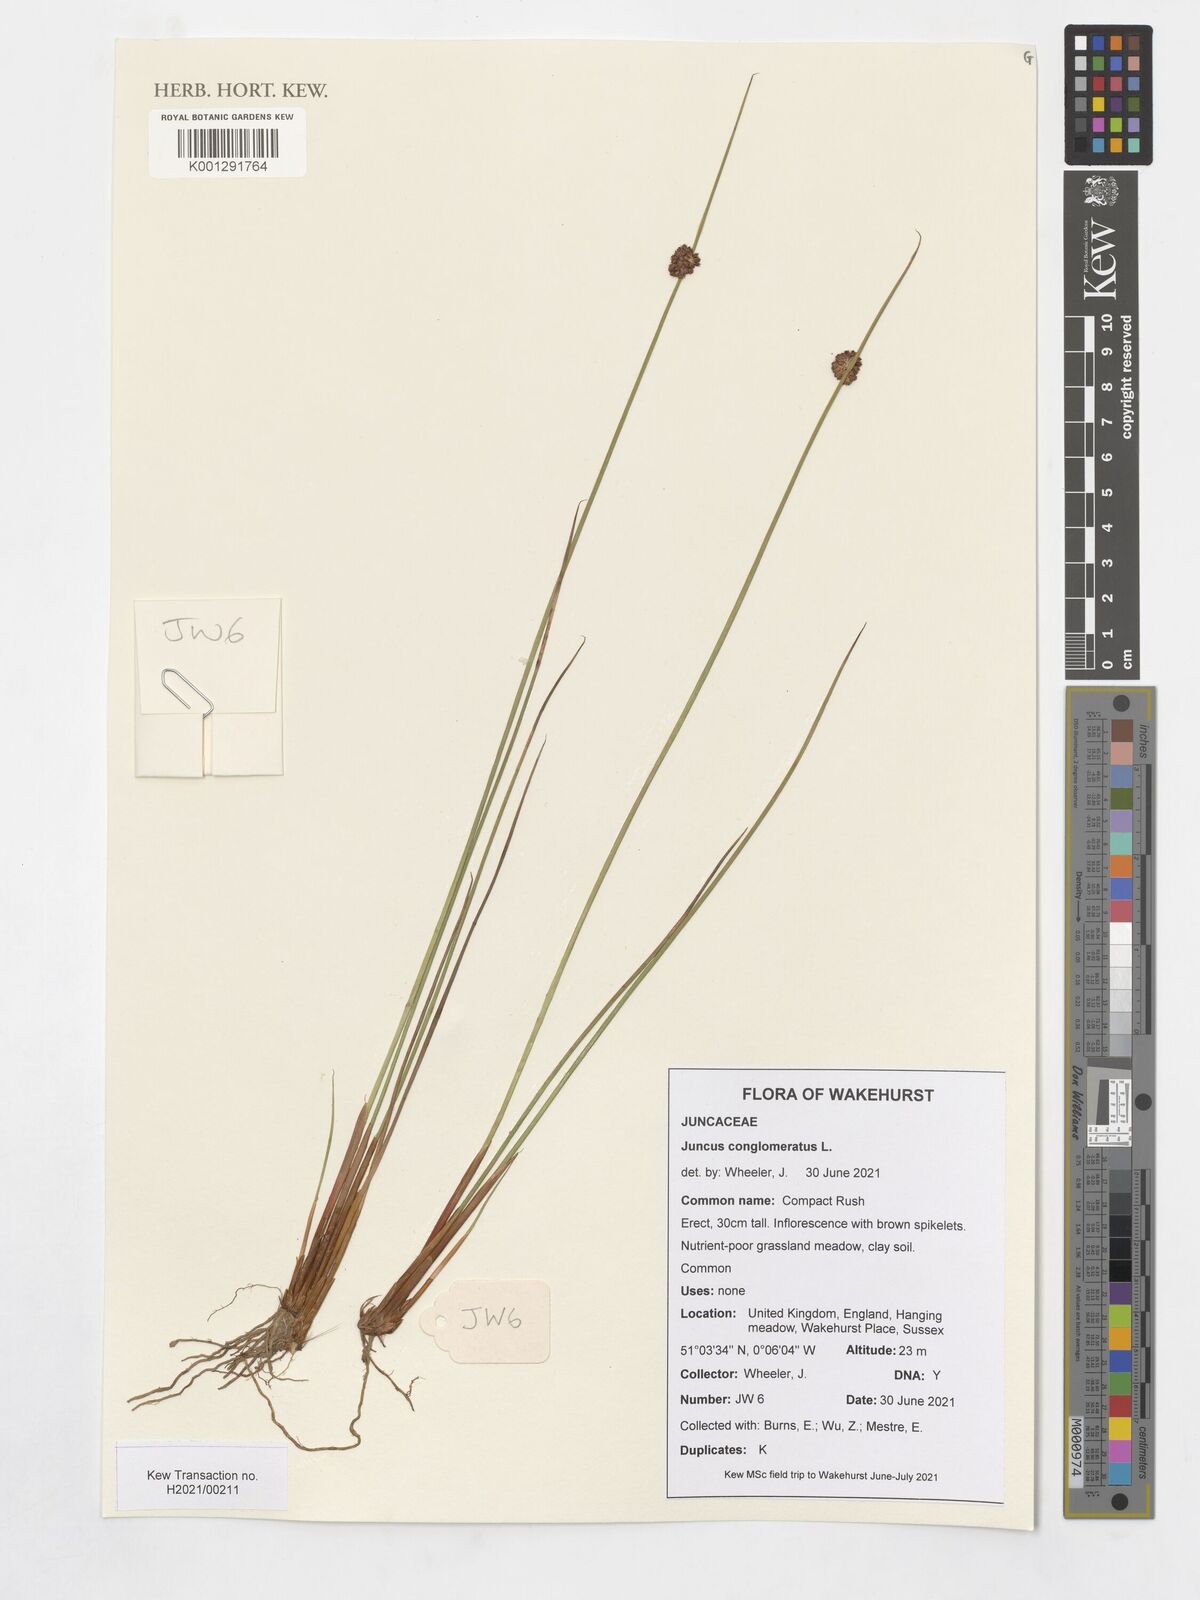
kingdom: Plantae
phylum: Tracheophyta
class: Liliopsida
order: Poales
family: Juncaceae
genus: Juncus
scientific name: Juncus conglomeratus
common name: Compact rush
